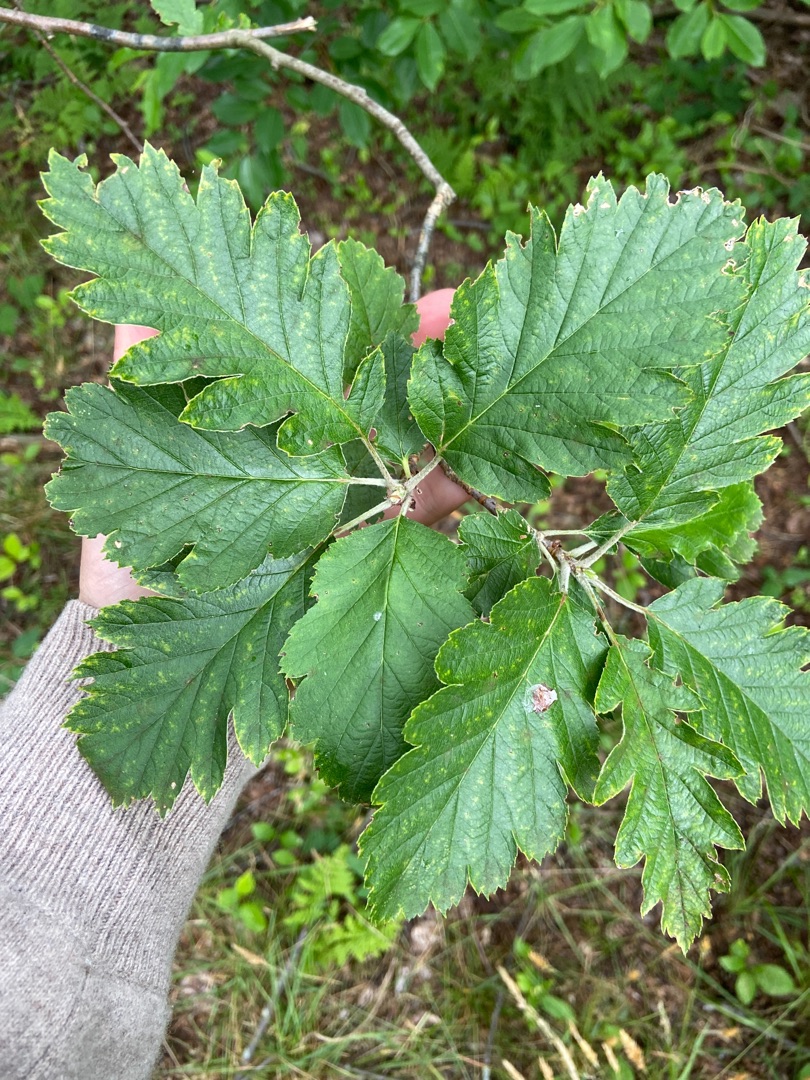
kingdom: Plantae
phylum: Tracheophyta
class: Magnoliopsida
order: Rosales
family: Rosaceae
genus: Scandosorbus
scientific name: Scandosorbus intermedia
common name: Selje-røn
